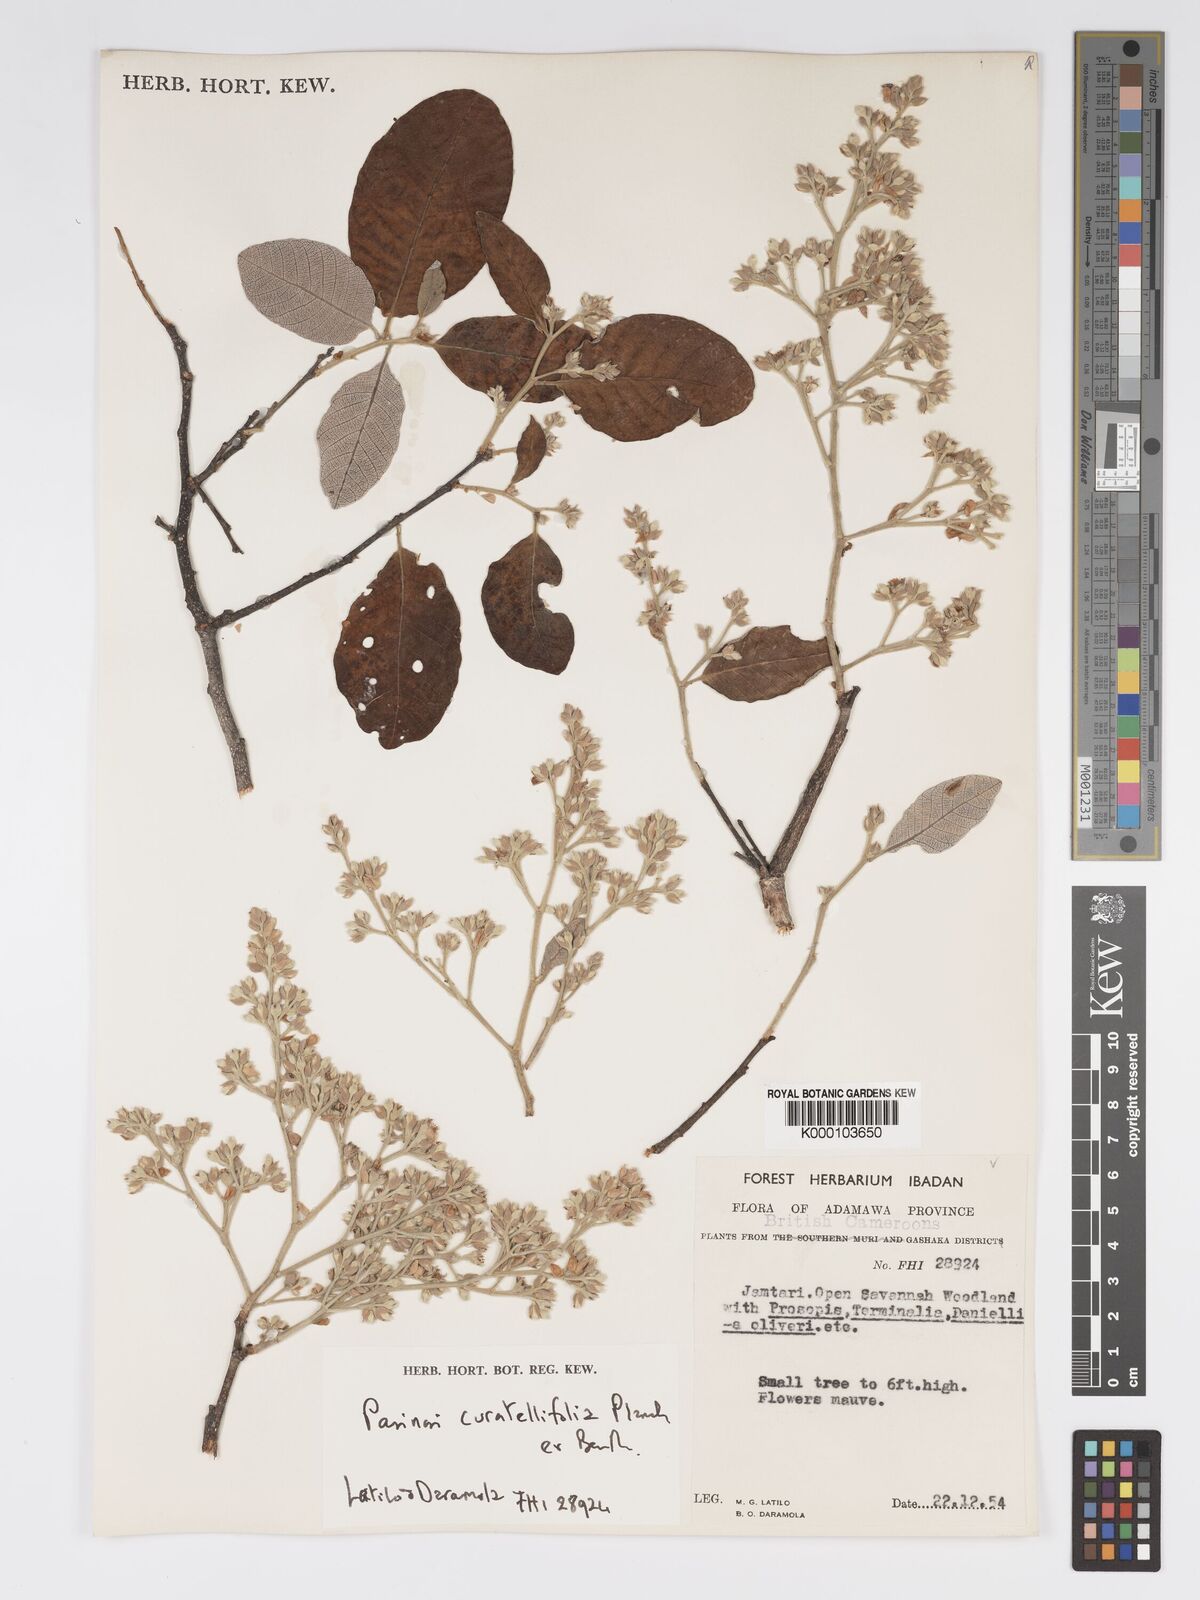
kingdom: Plantae
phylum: Tracheophyta
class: Magnoliopsida
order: Malpighiales
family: Chrysobalanaceae
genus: Parinari
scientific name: Parinari curatellifolia
